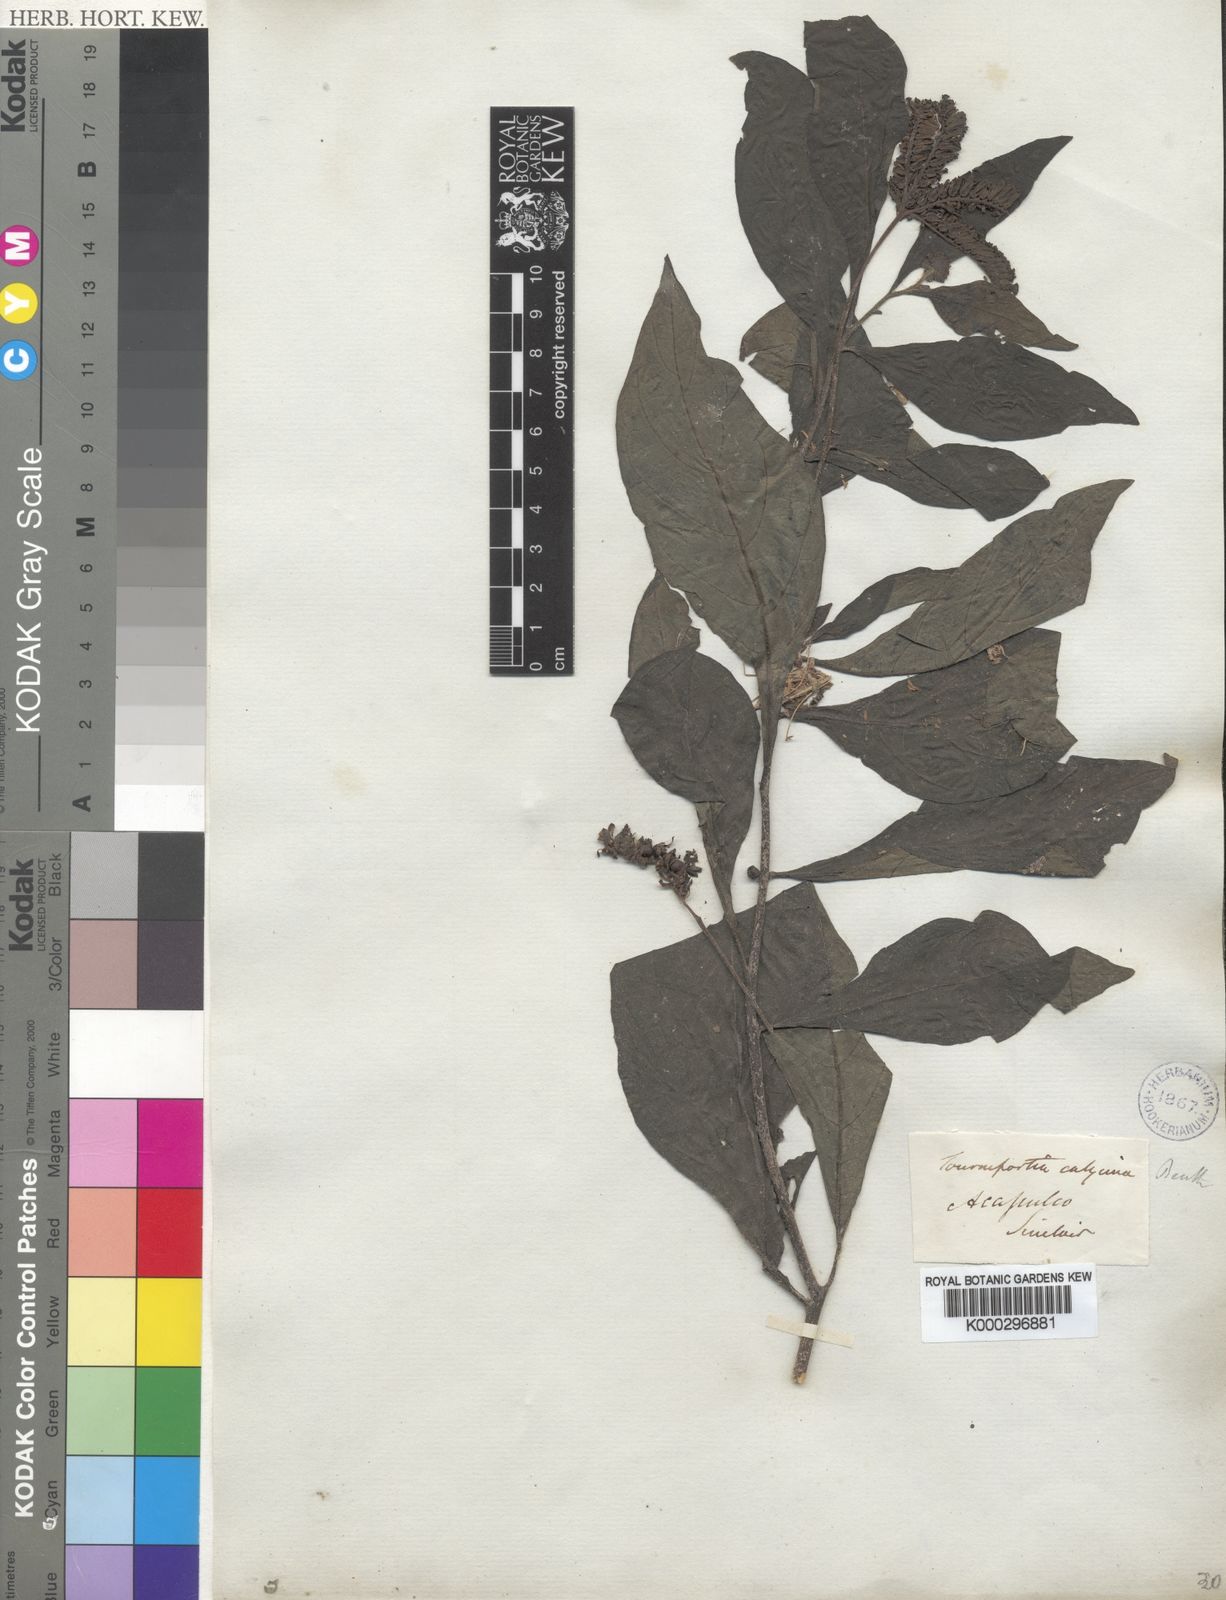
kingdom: Plantae
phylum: Tracheophyta
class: Magnoliopsida
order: Boraginales
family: Heliotropiaceae
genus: Tournefortia
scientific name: Tournefortia calycina
